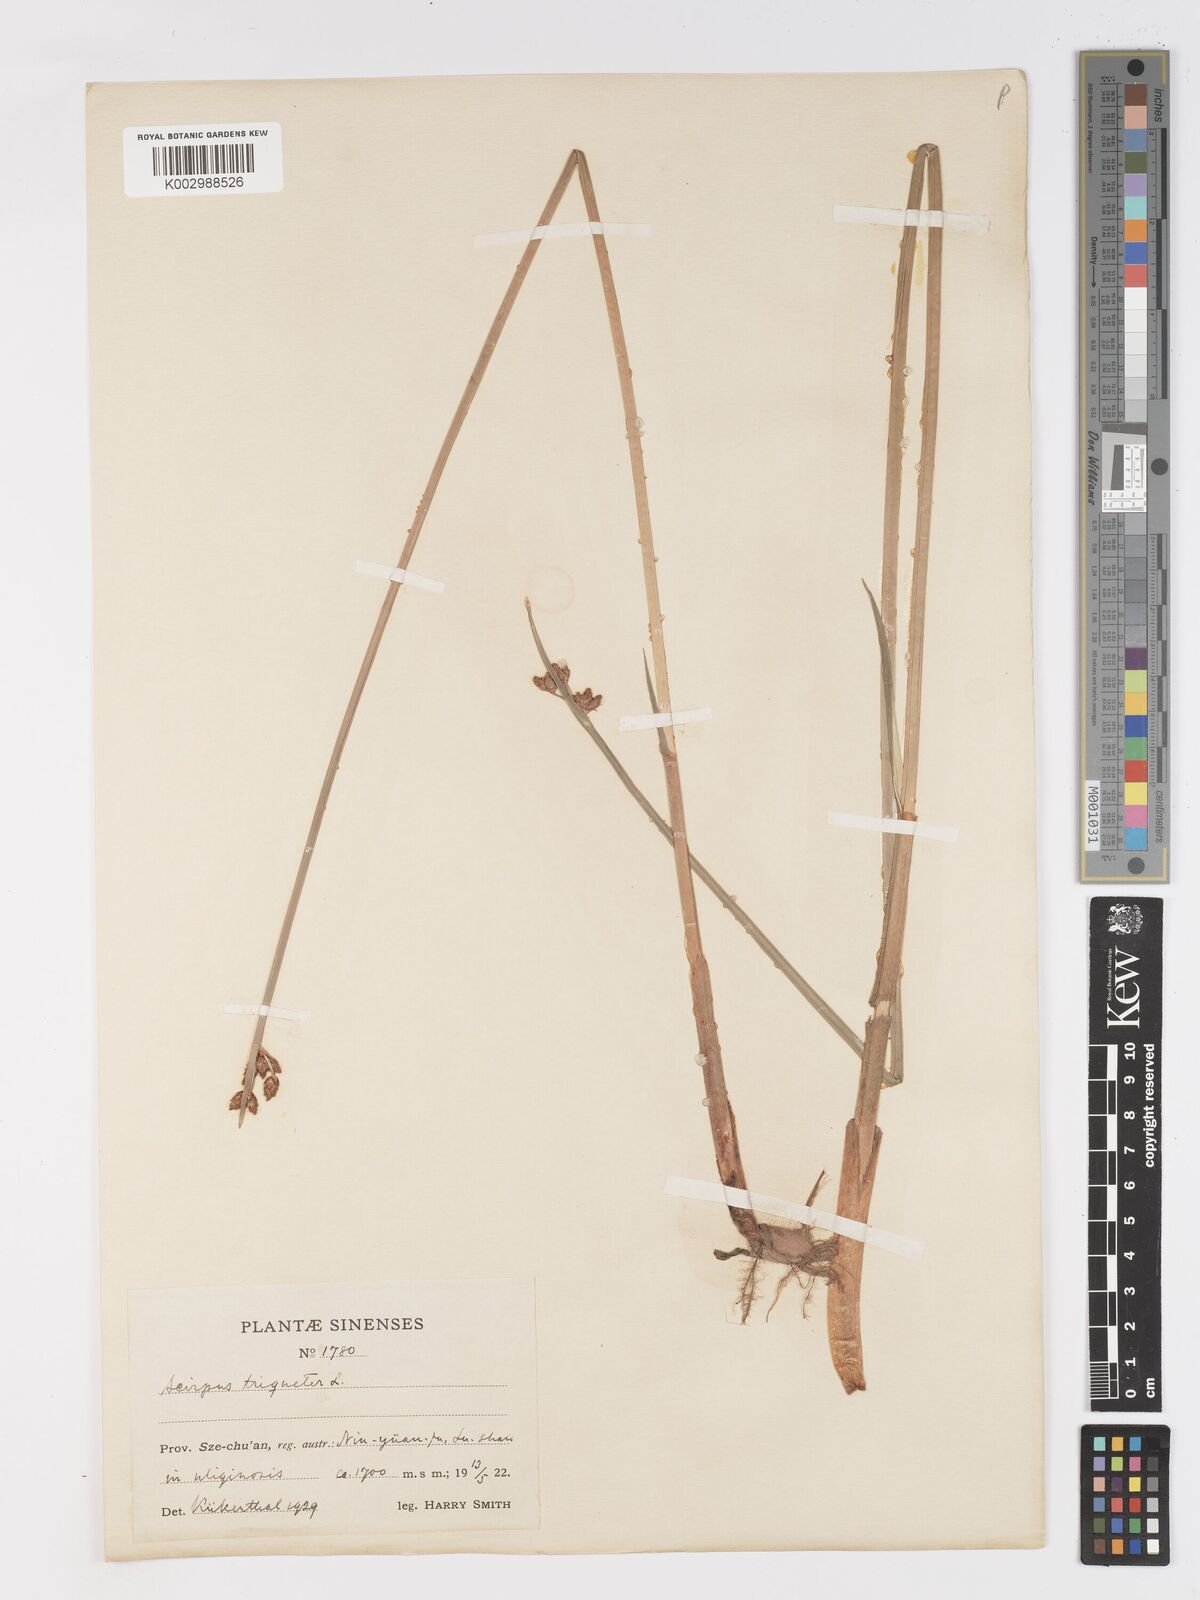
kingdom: Plantae
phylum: Tracheophyta
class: Liliopsida
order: Poales
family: Cyperaceae
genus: Schoenoplectus
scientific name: Schoenoplectus triqueter
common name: Triangular club-rush
